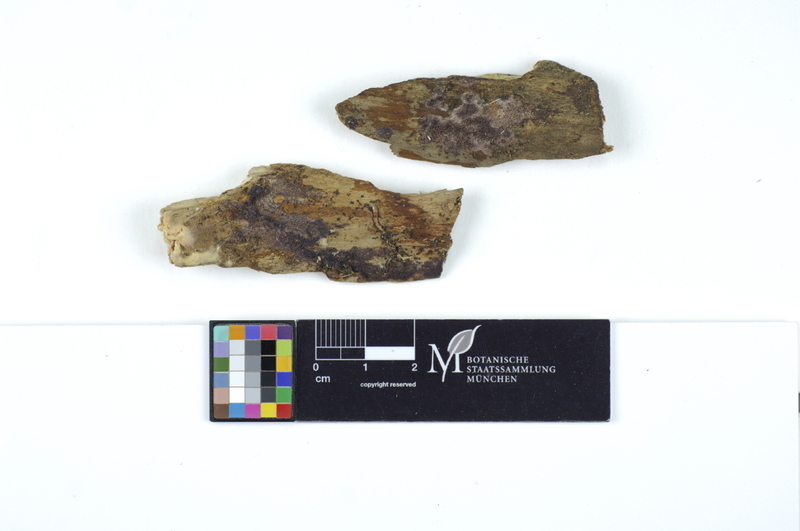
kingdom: Fungi
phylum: Basidiomycota
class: Agaricomycetes
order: Polyporales
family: Irpicaceae
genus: Ceriporia
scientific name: Ceriporia excelsa
